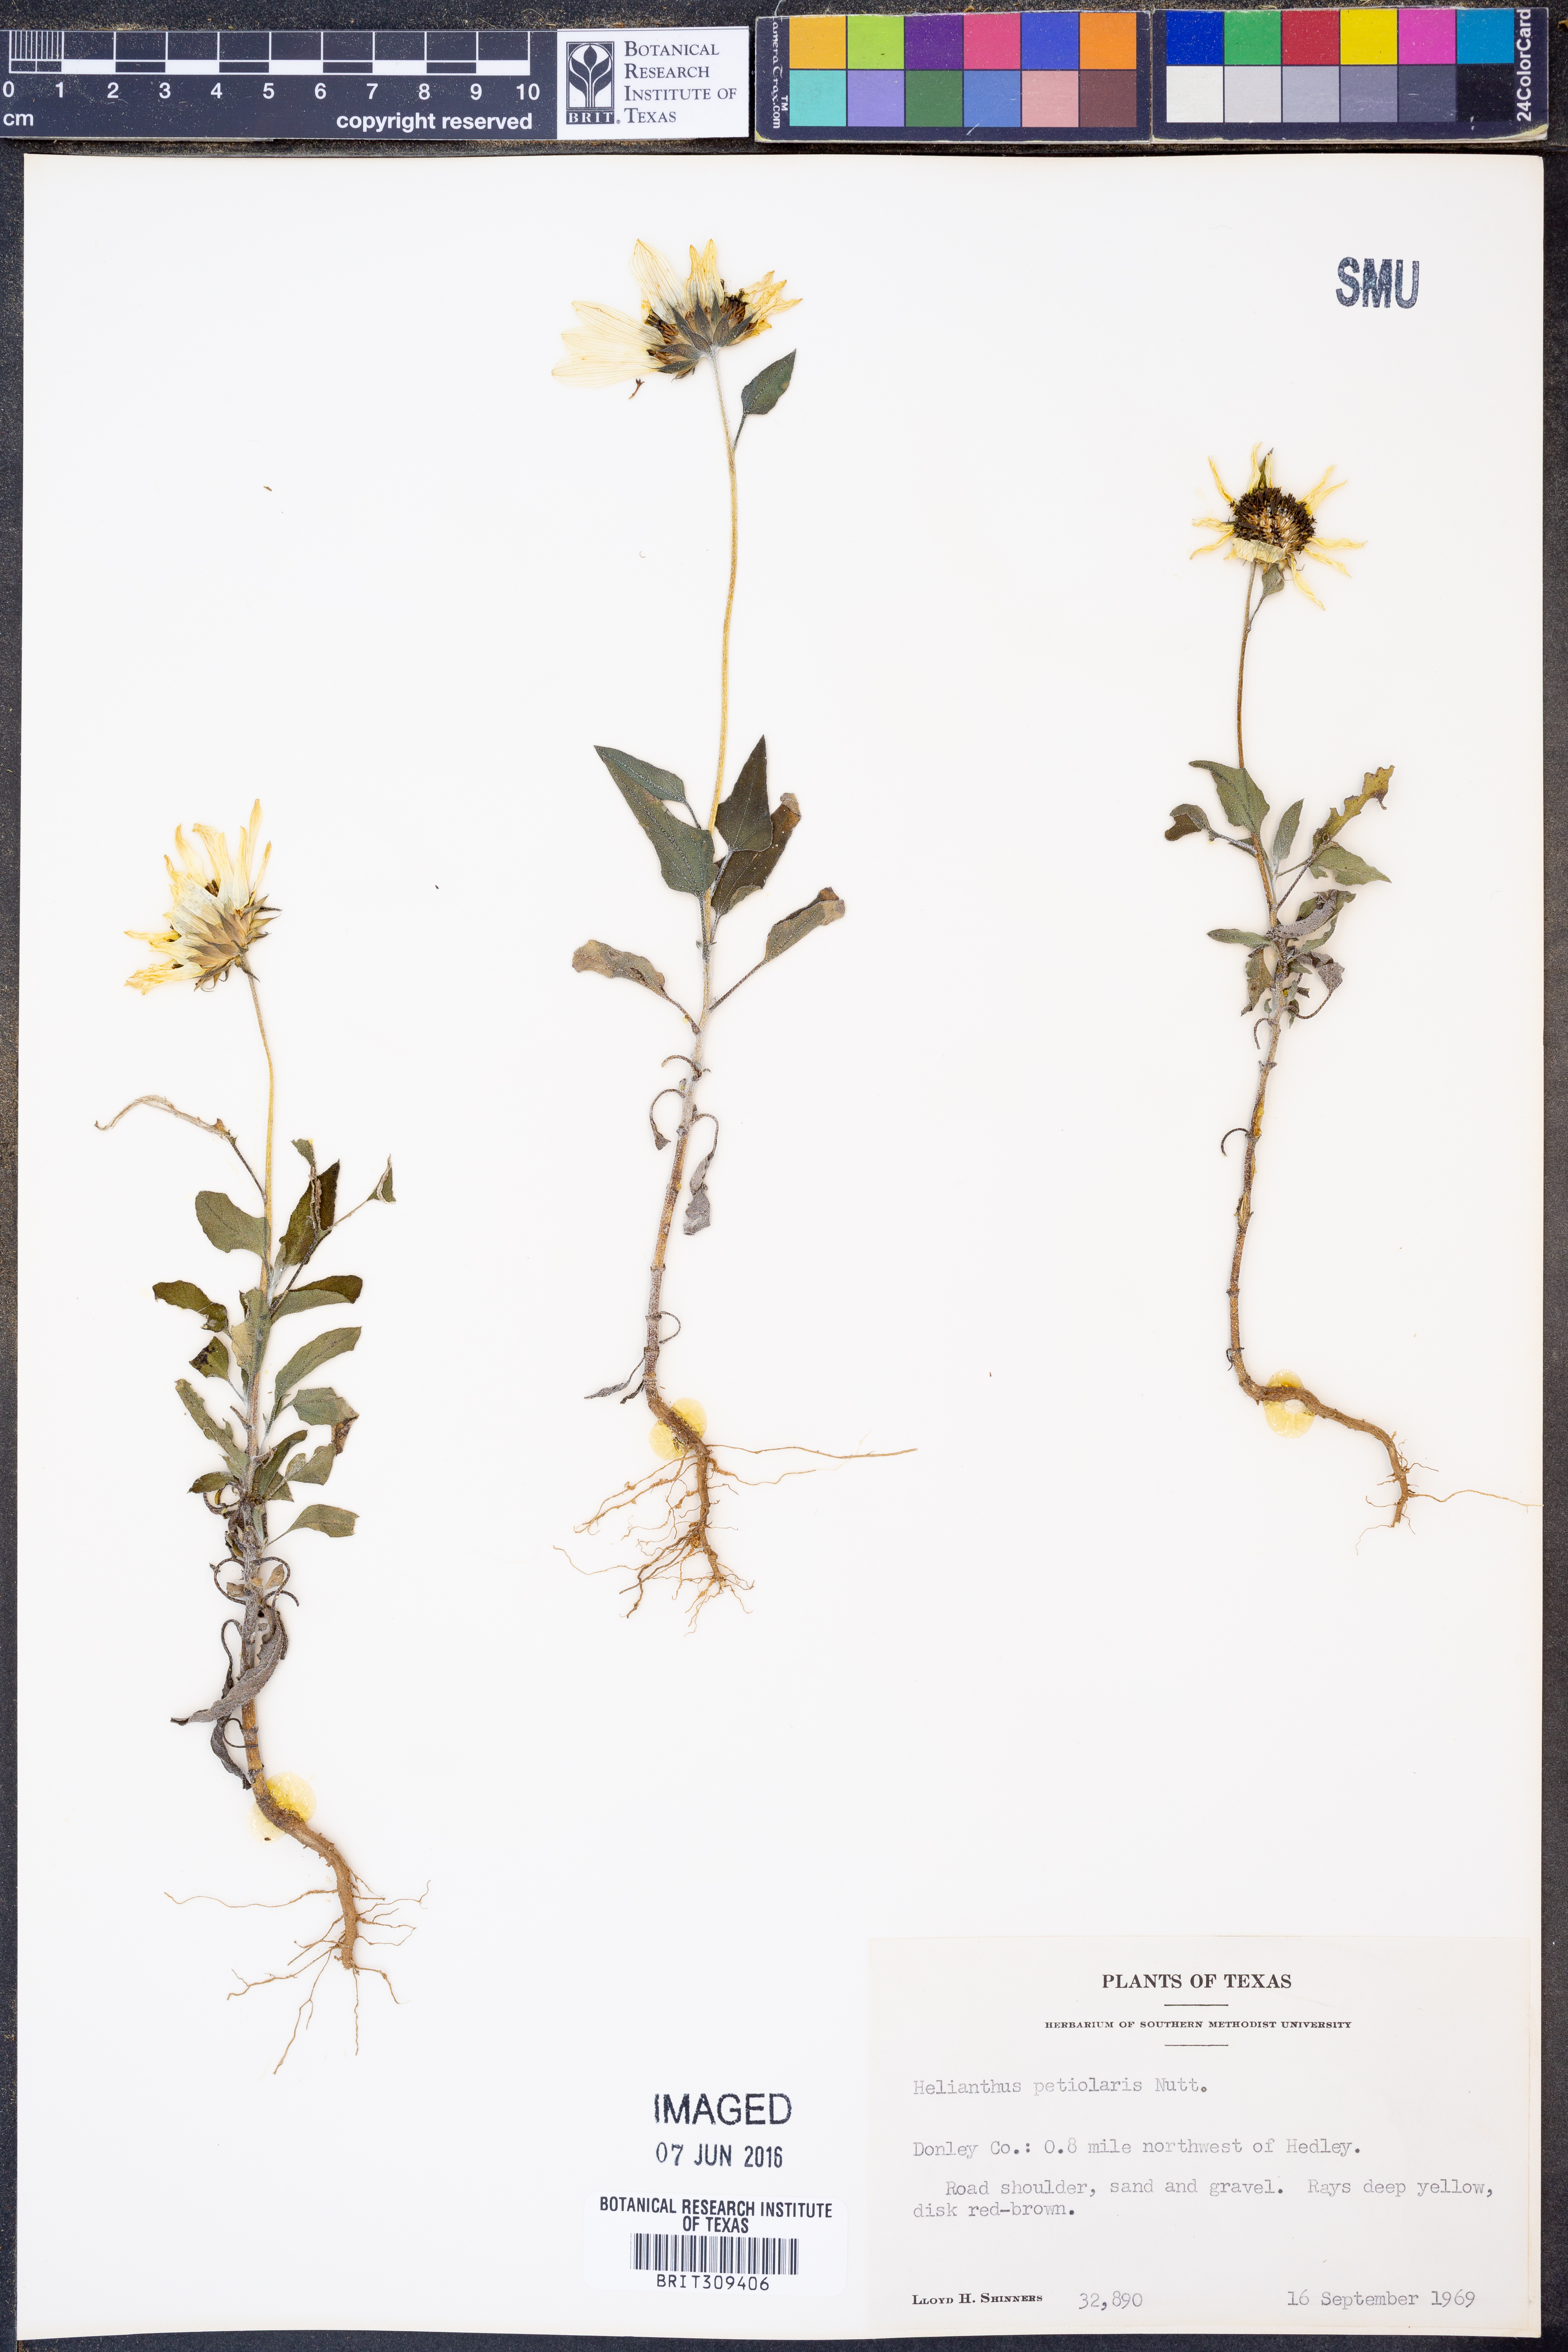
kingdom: Plantae
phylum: Tracheophyta
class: Magnoliopsida
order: Asterales
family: Asteraceae
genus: Helianthus
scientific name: Helianthus petiolaris
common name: Lesser sunflower
